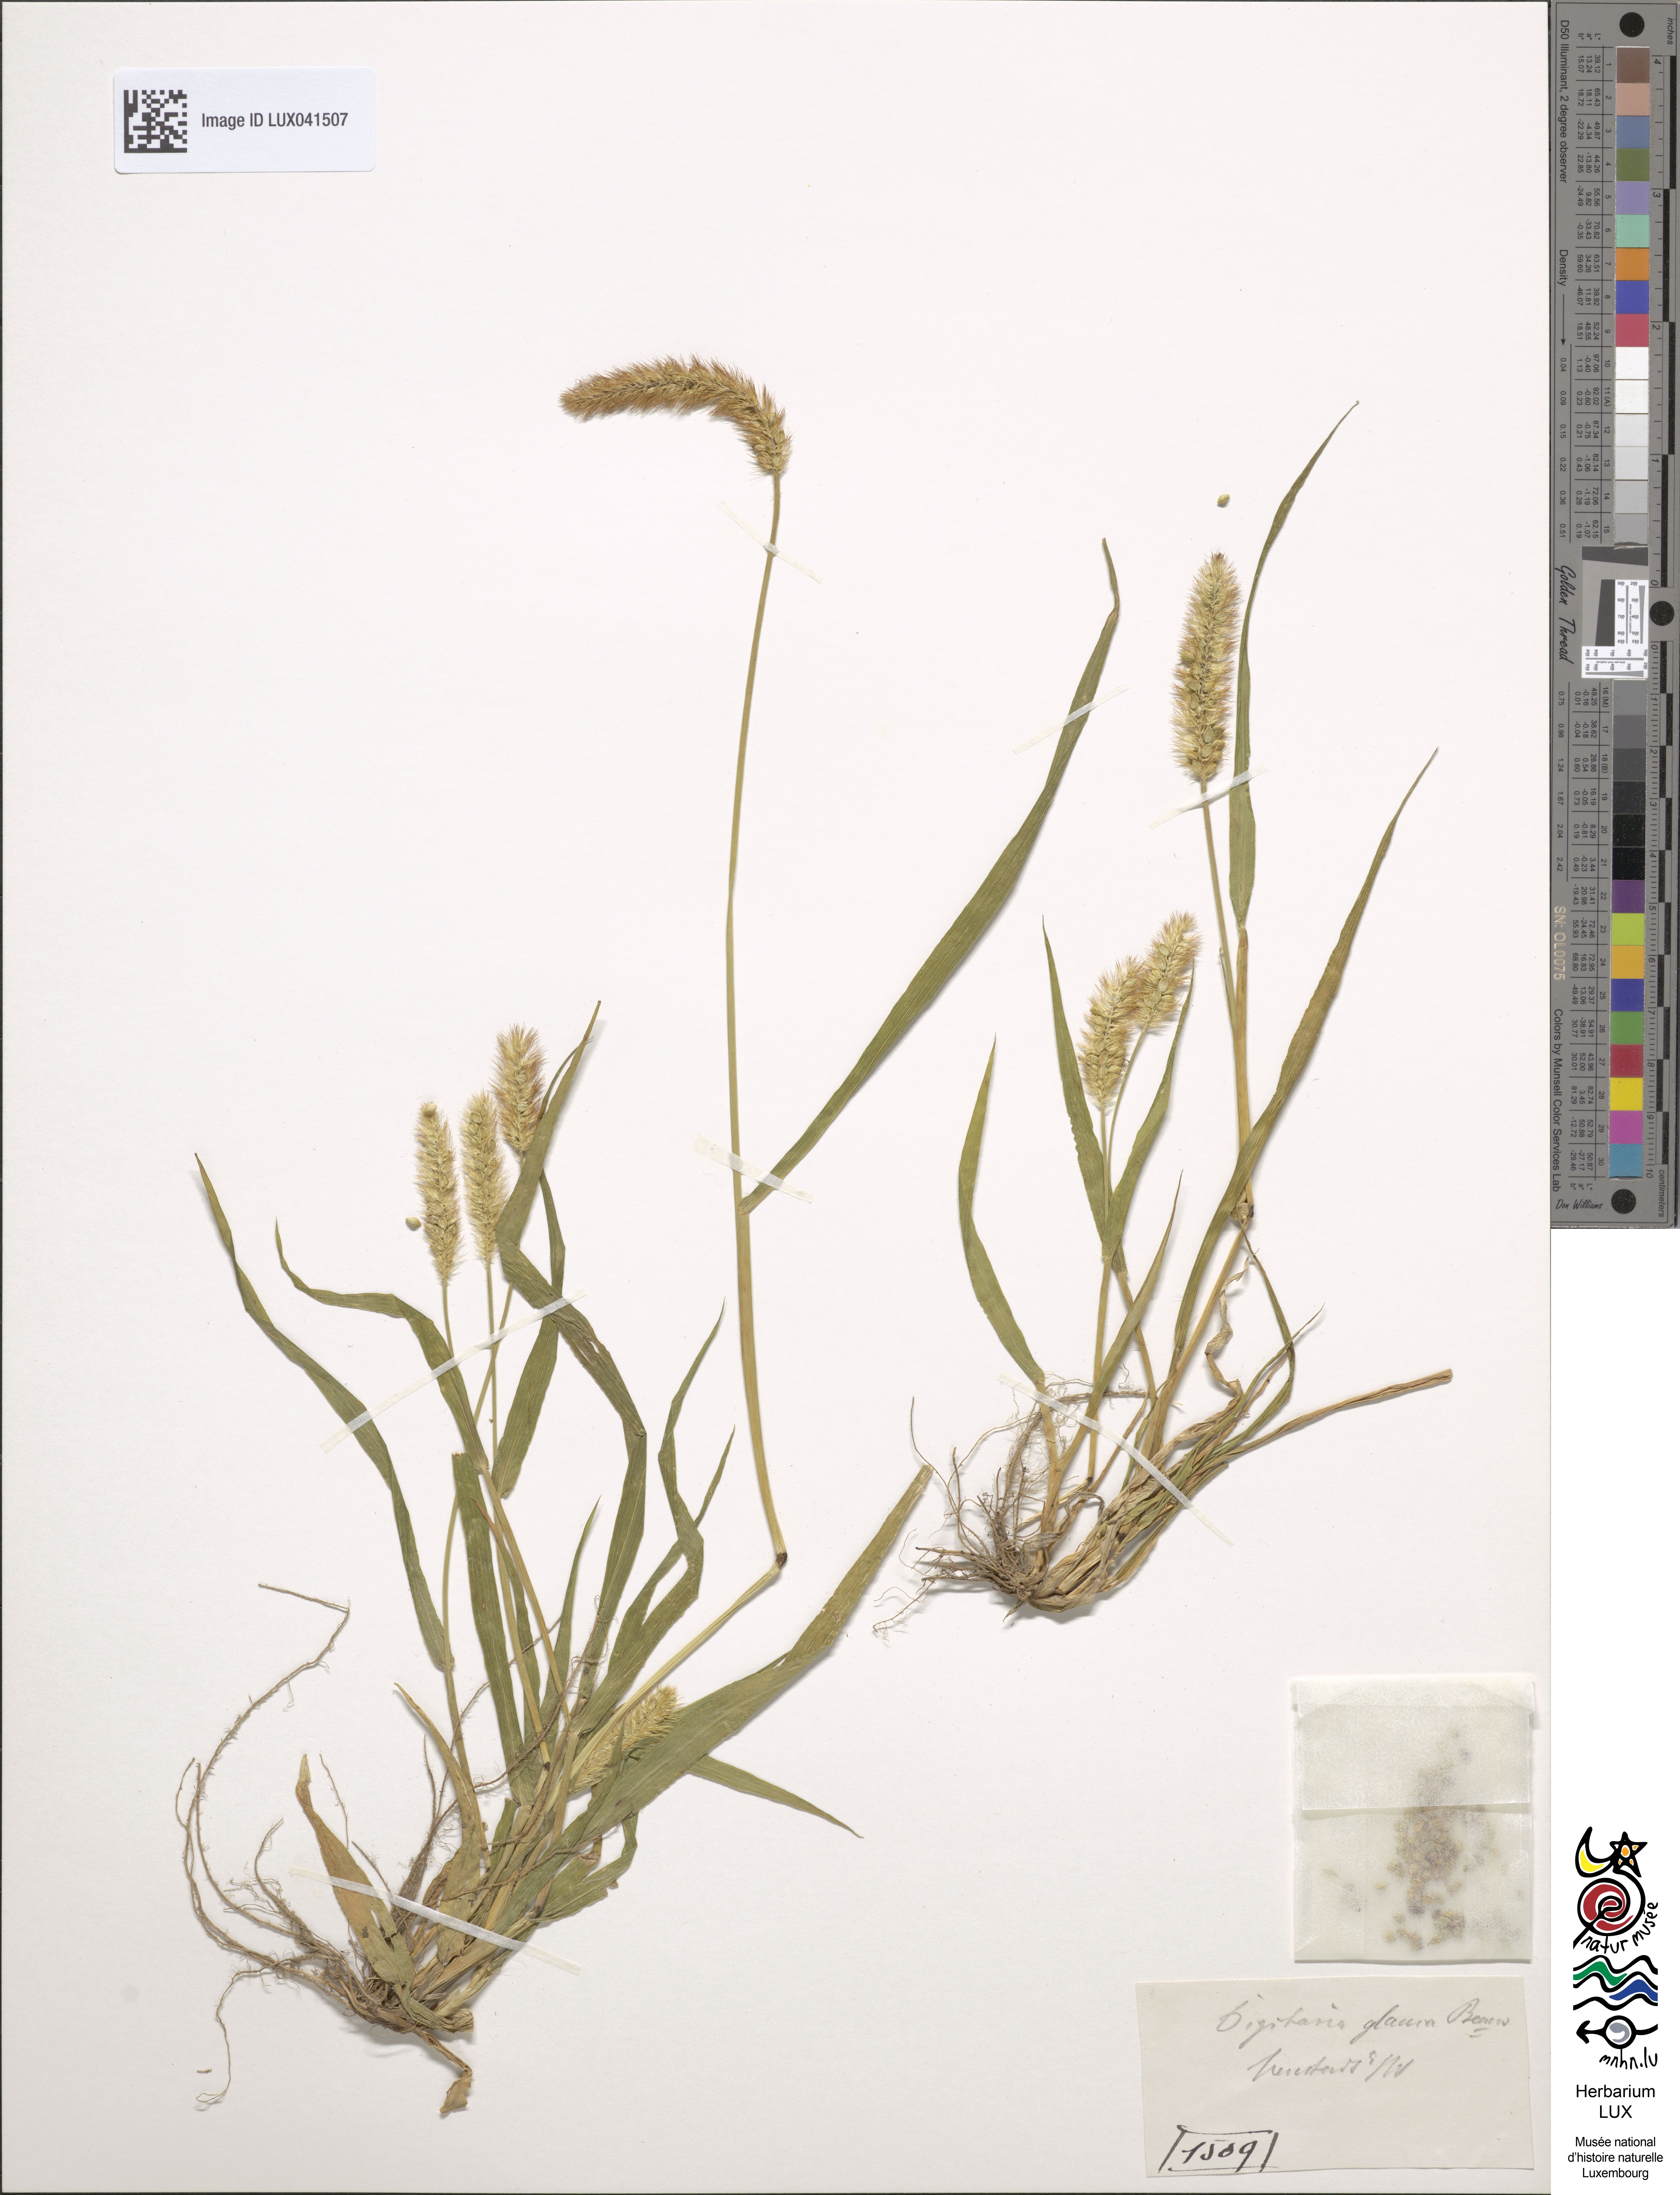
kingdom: Plantae
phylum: Tracheophyta
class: Liliopsida
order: Poales
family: Poaceae
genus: Cenchrus
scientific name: Cenchrus americanus
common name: Pearl millet
